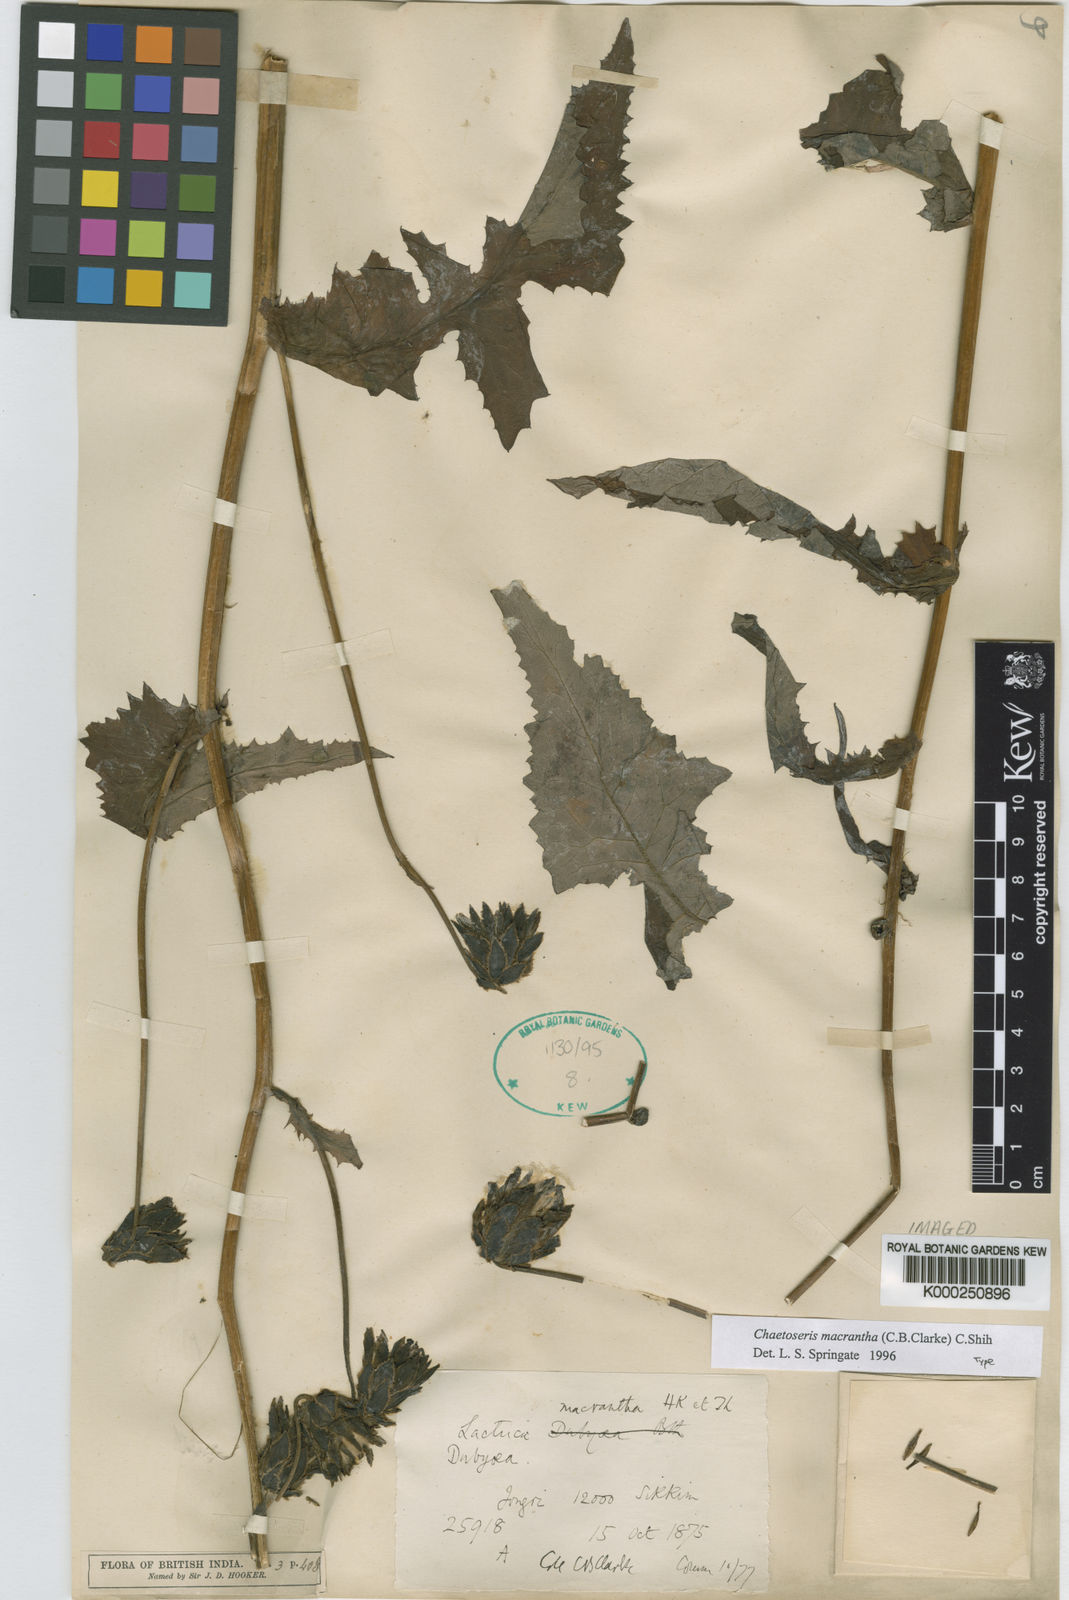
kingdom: Plantae
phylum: Tracheophyta
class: Magnoliopsida
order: Asterales
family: Asteraceae
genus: Melanoseris
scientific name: Melanoseris macrantha
